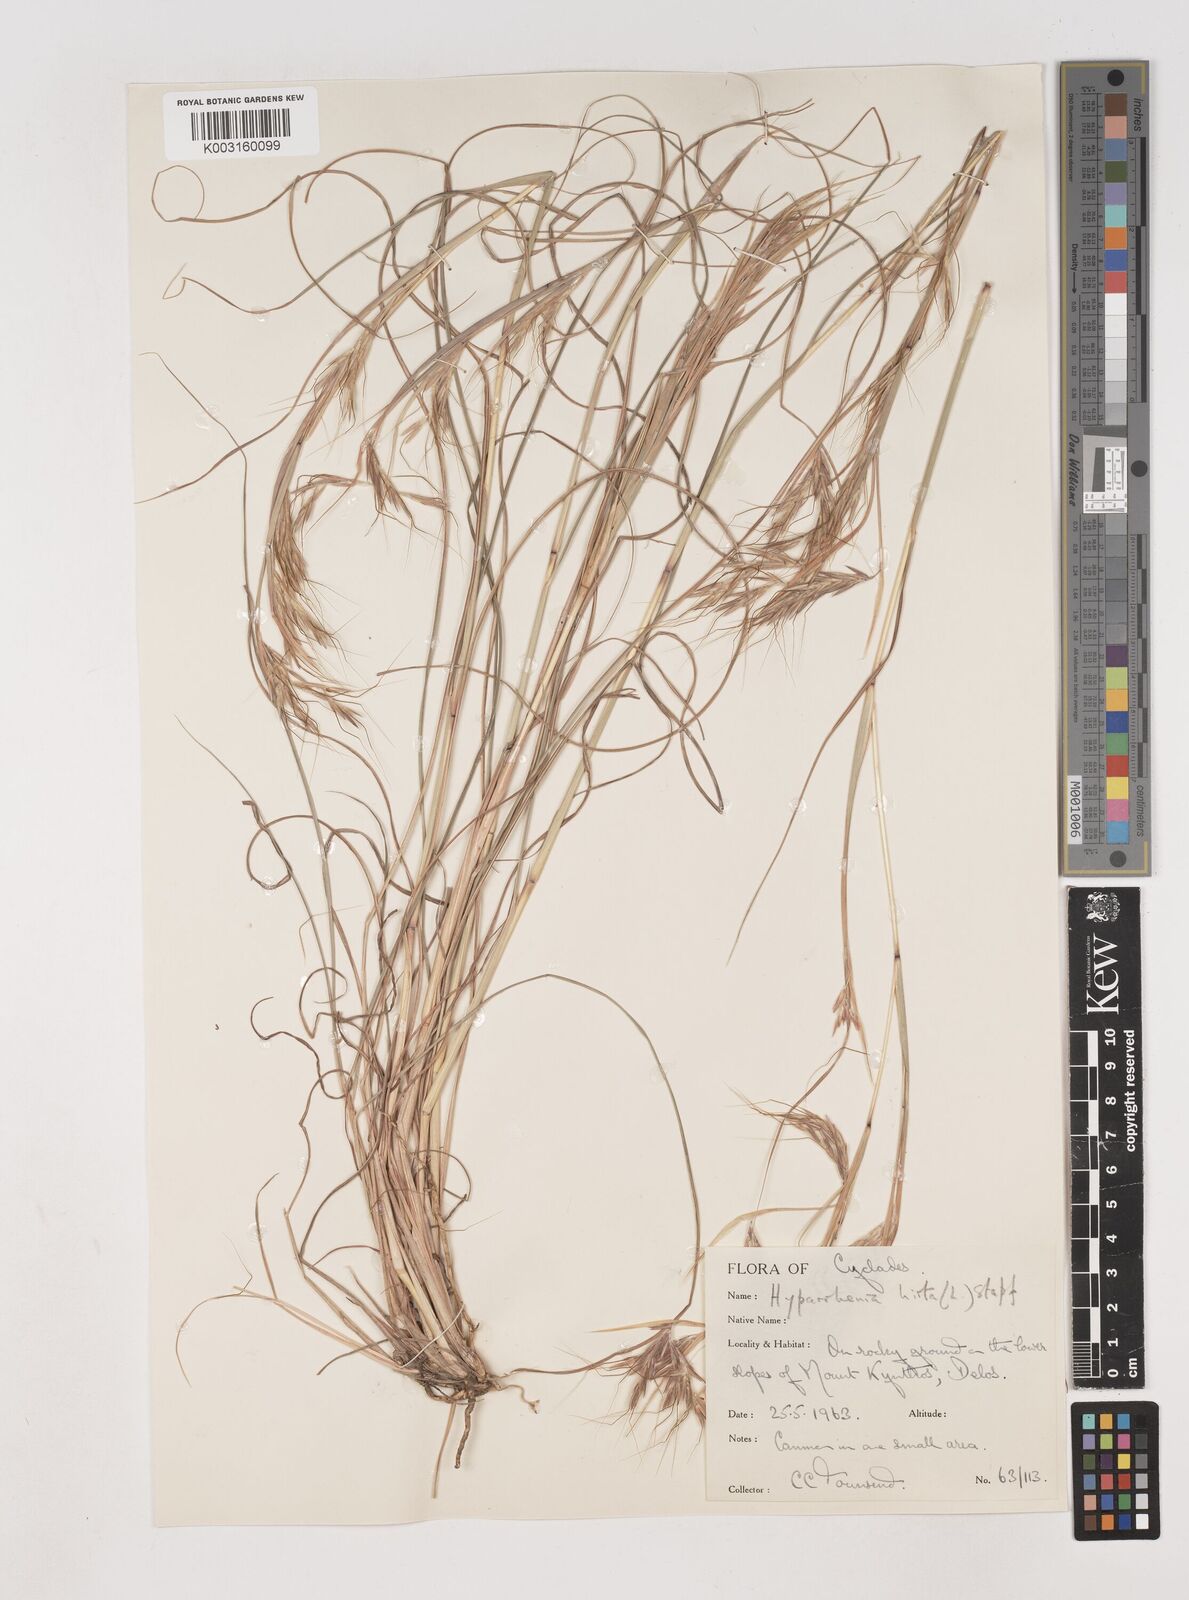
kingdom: Plantae
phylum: Tracheophyta
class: Liliopsida
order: Poales
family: Poaceae
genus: Hyparrhenia
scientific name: Hyparrhenia hirta
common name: Thatching grass
